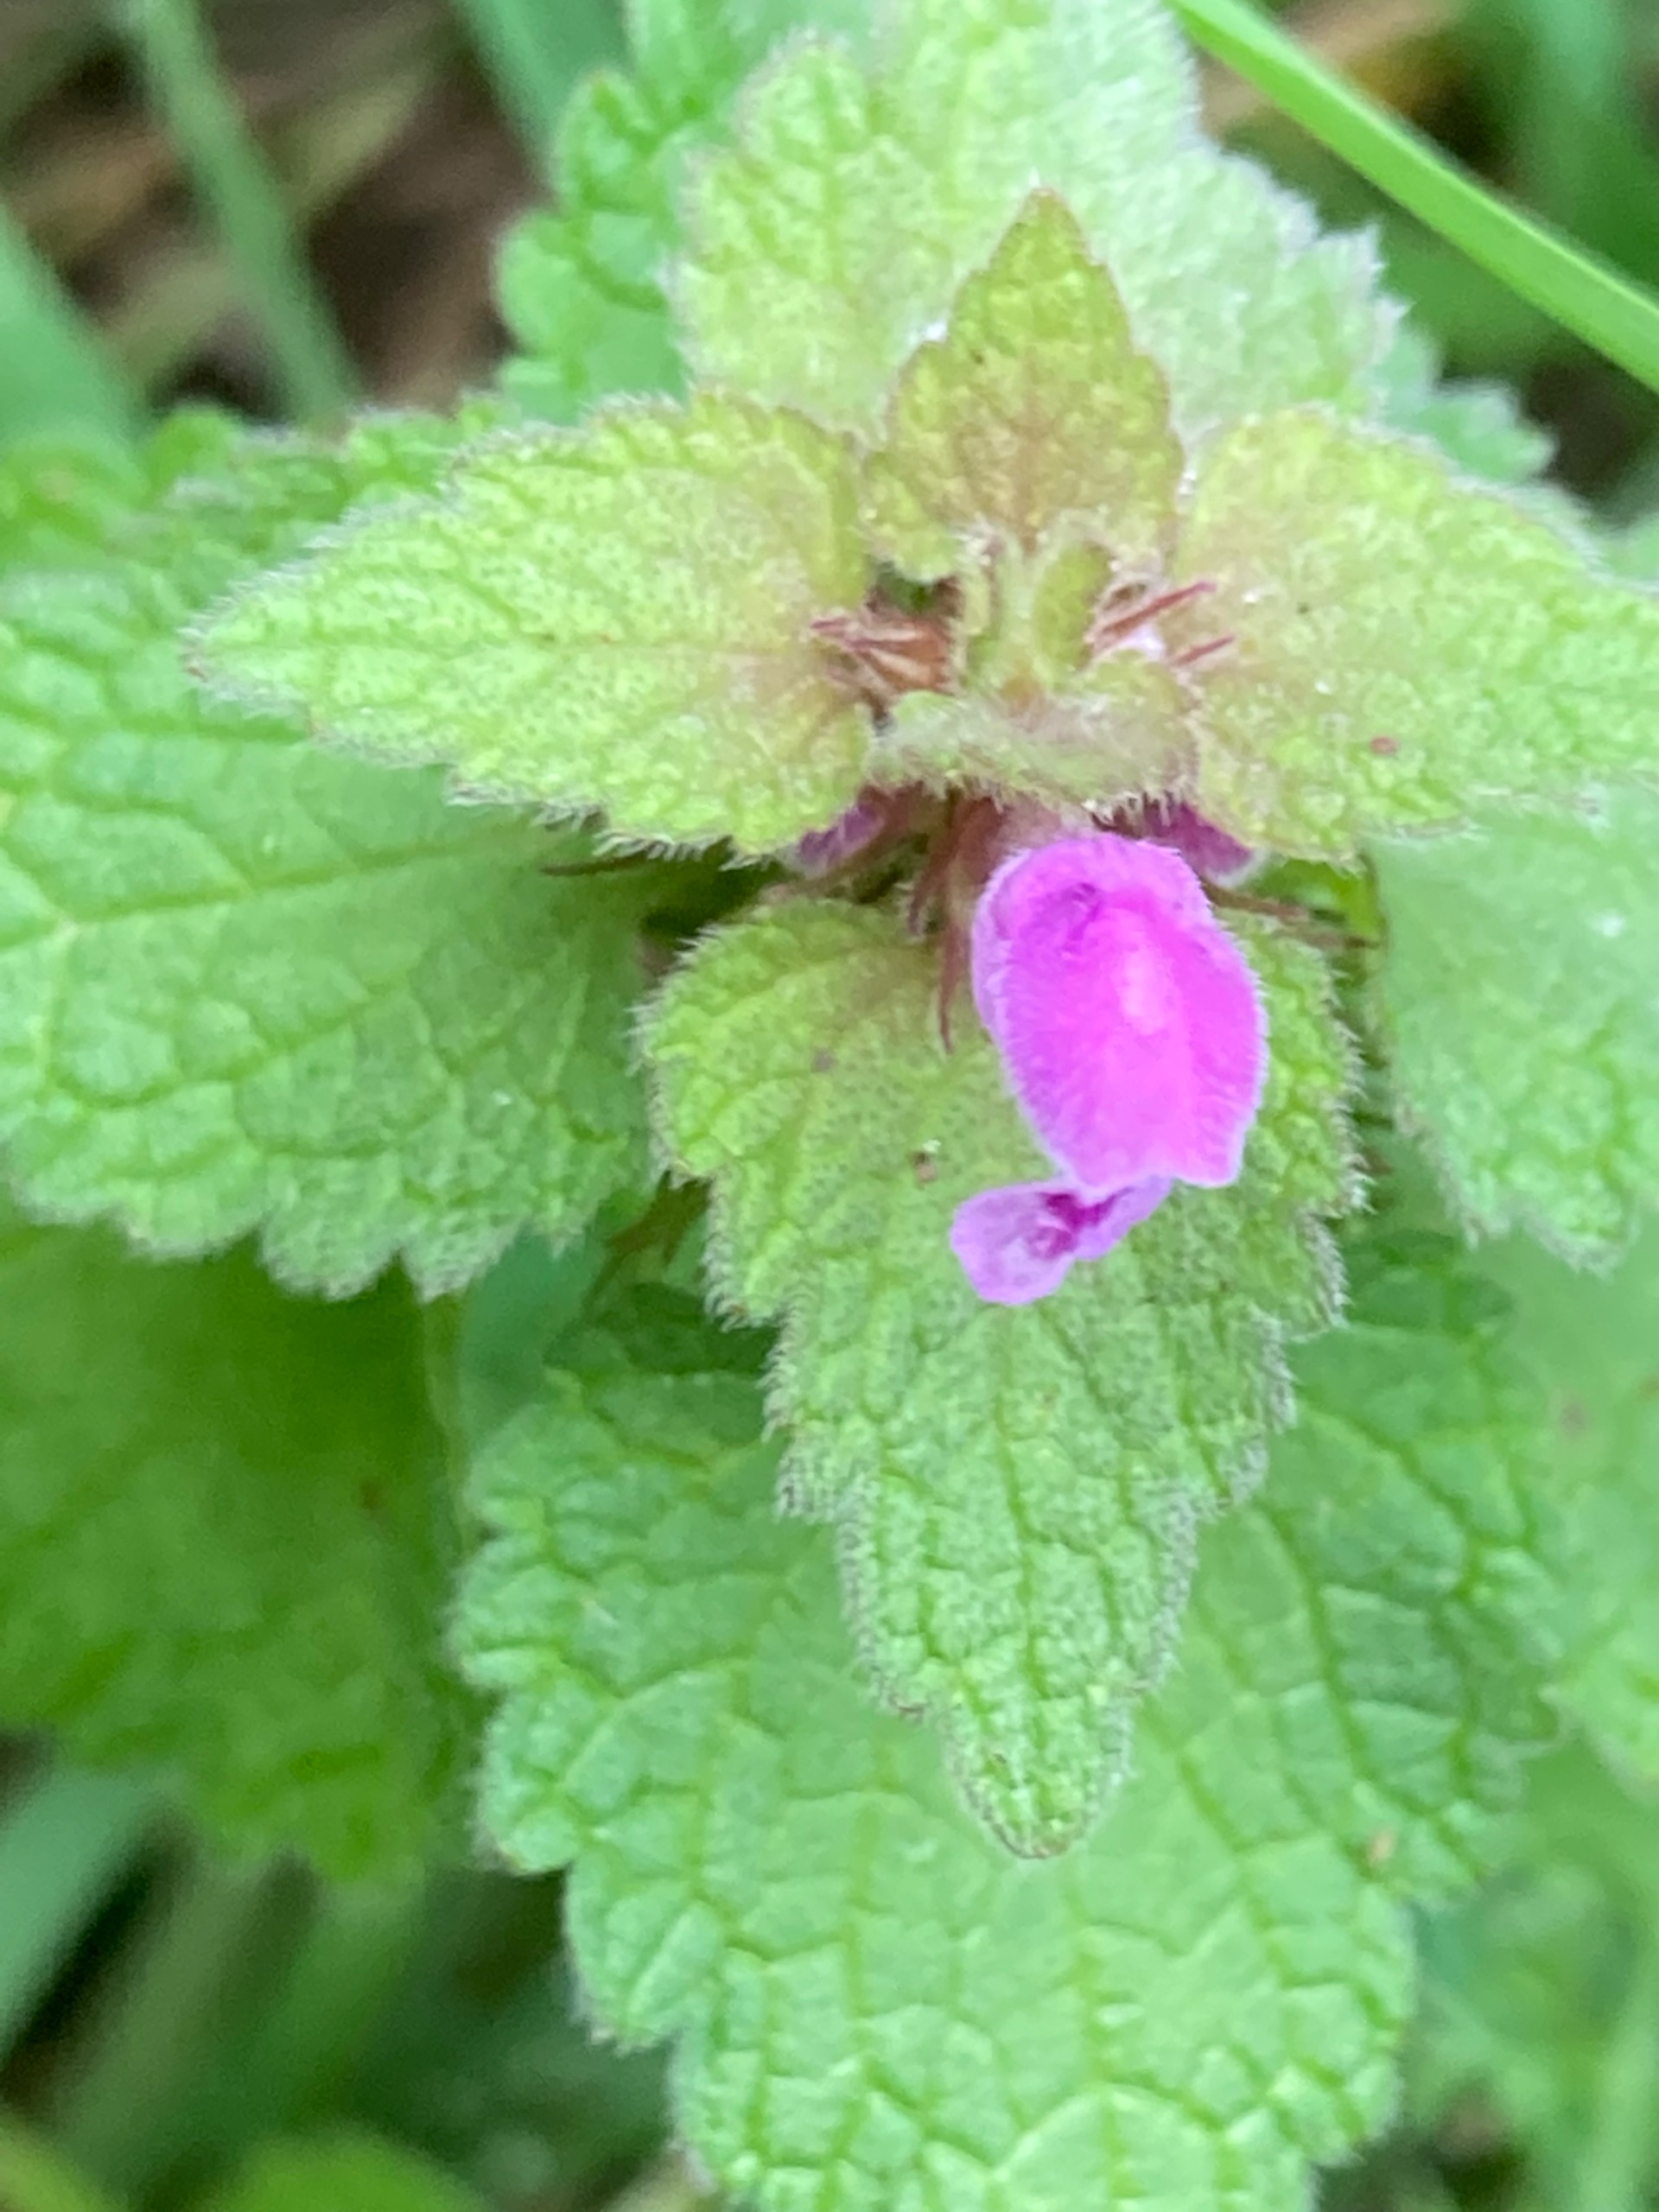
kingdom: Plantae
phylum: Tracheophyta
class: Magnoliopsida
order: Lamiales
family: Lamiaceae
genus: Lamium
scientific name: Lamium purpureum
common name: Rød tvetand
